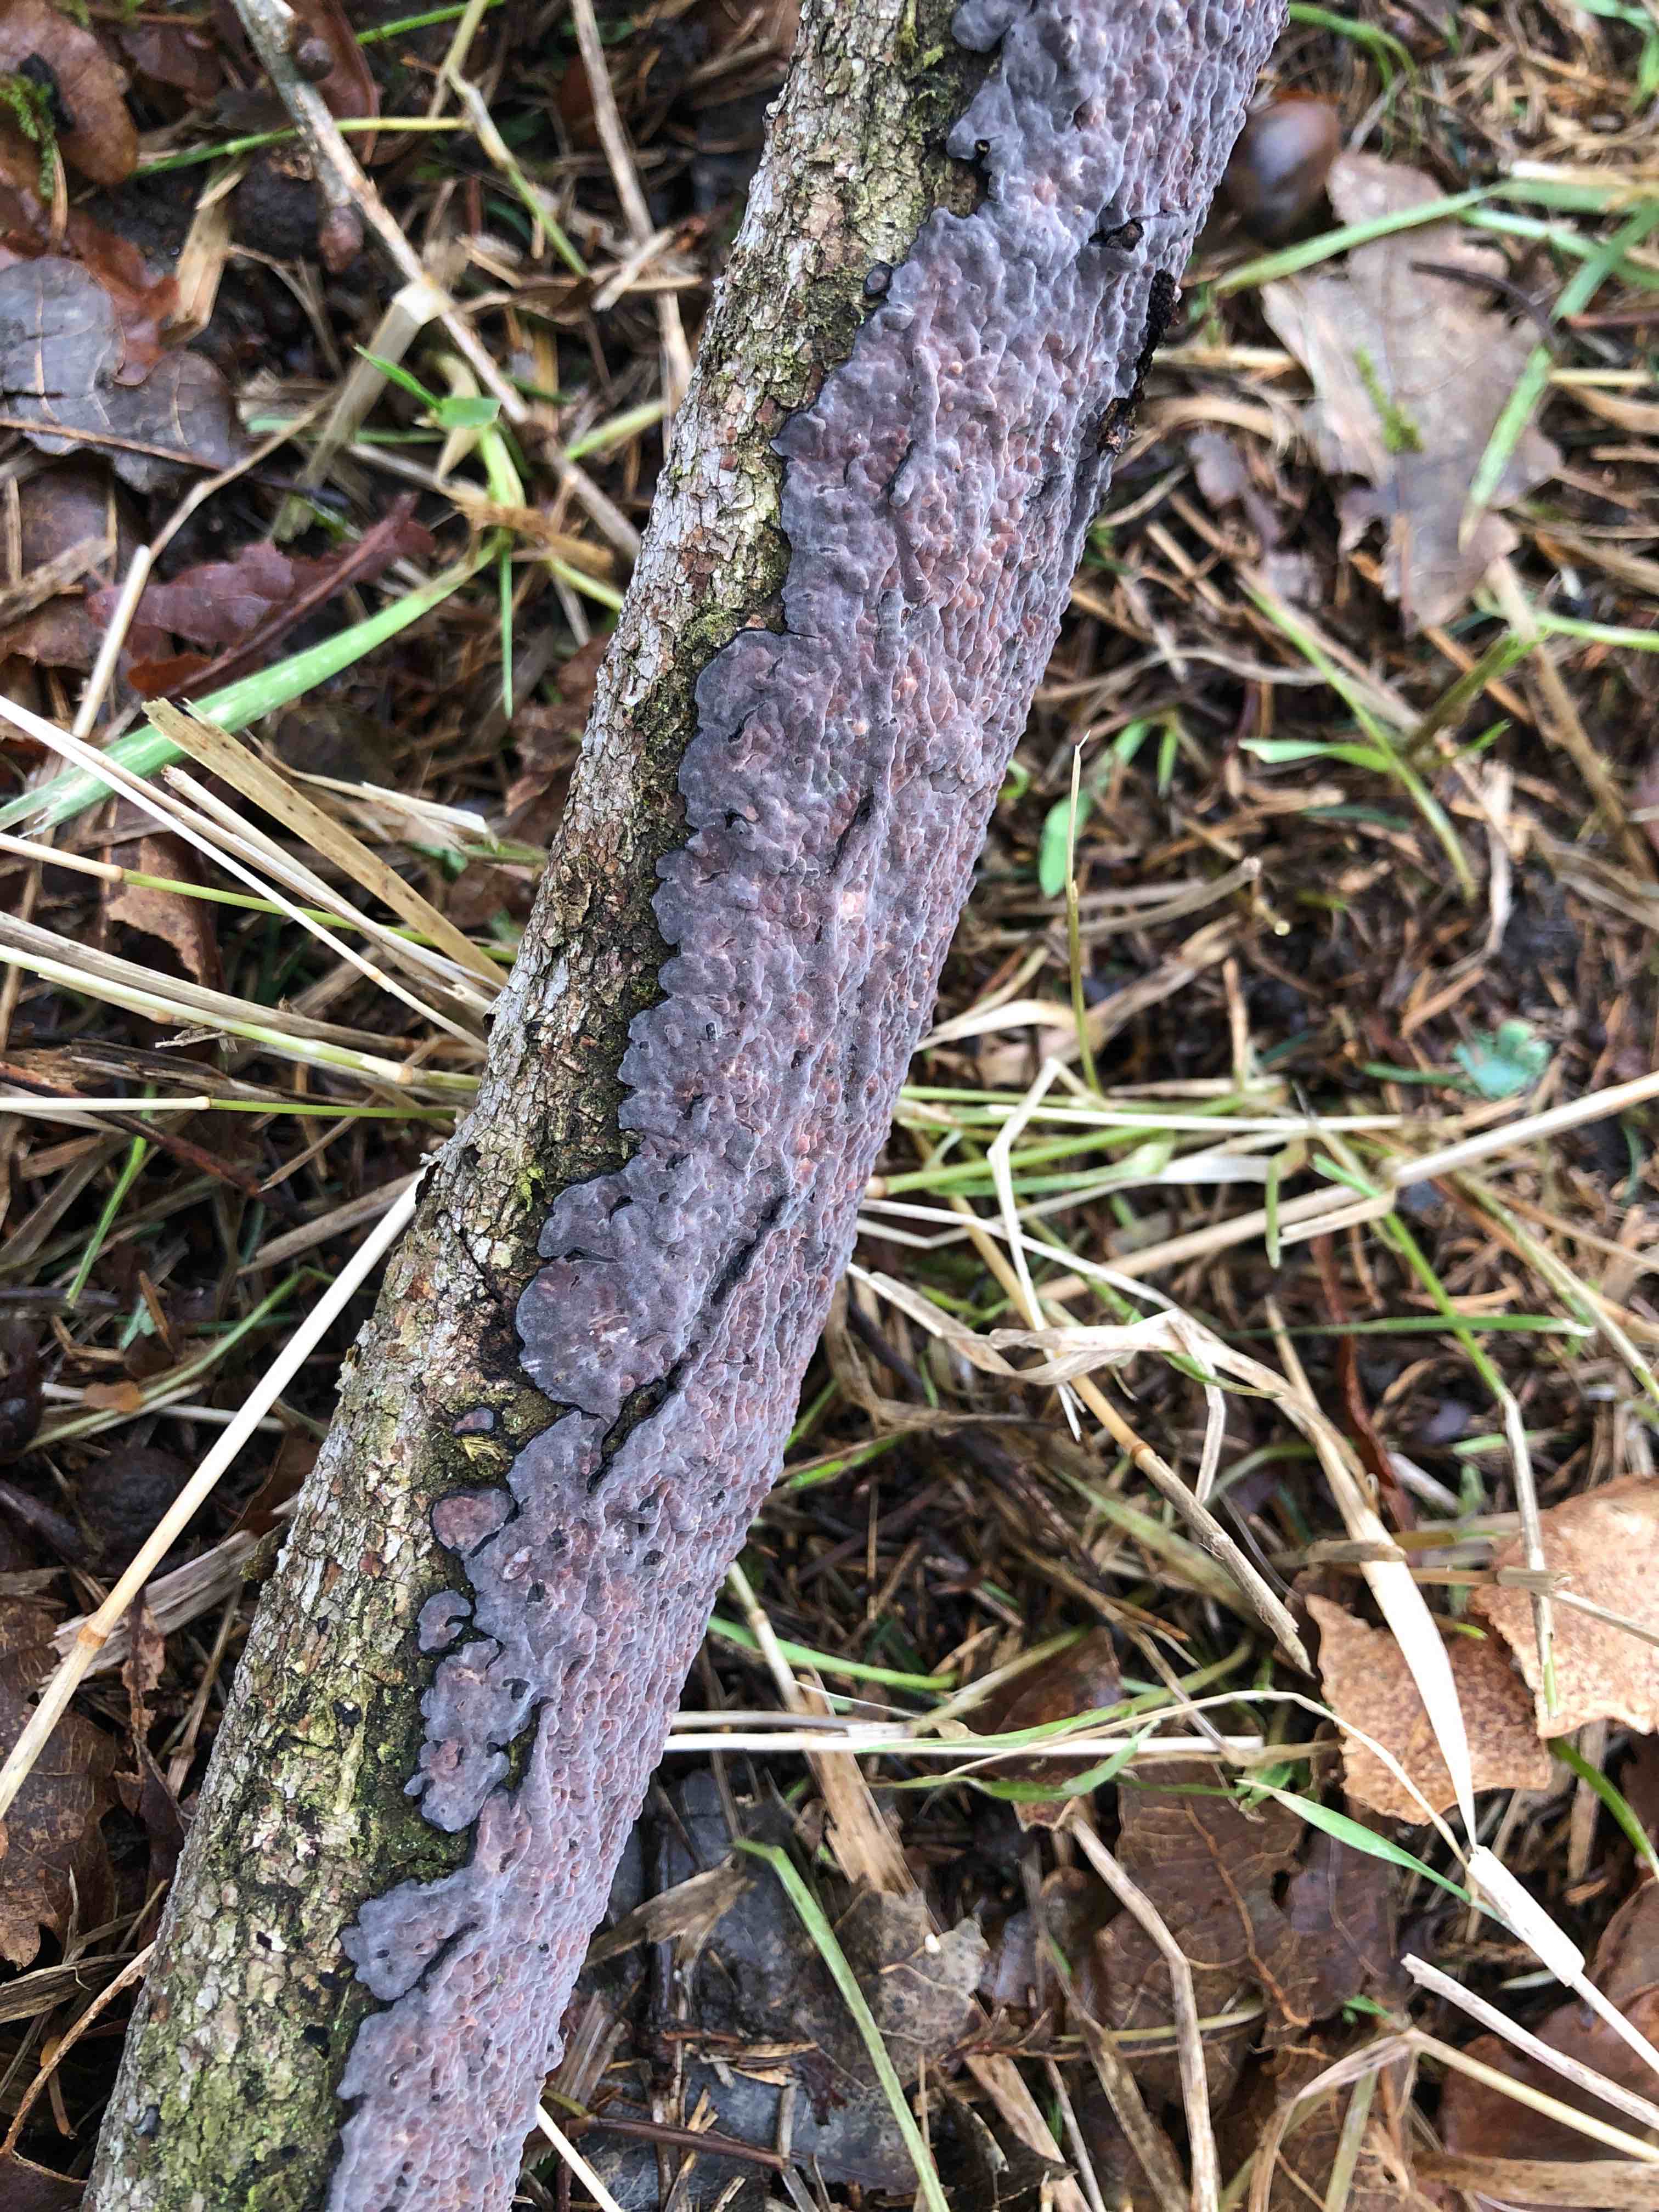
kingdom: Fungi
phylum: Basidiomycota
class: Agaricomycetes
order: Russulales
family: Peniophoraceae
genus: Peniophora
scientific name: Peniophora quercina
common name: ege-voksskind
